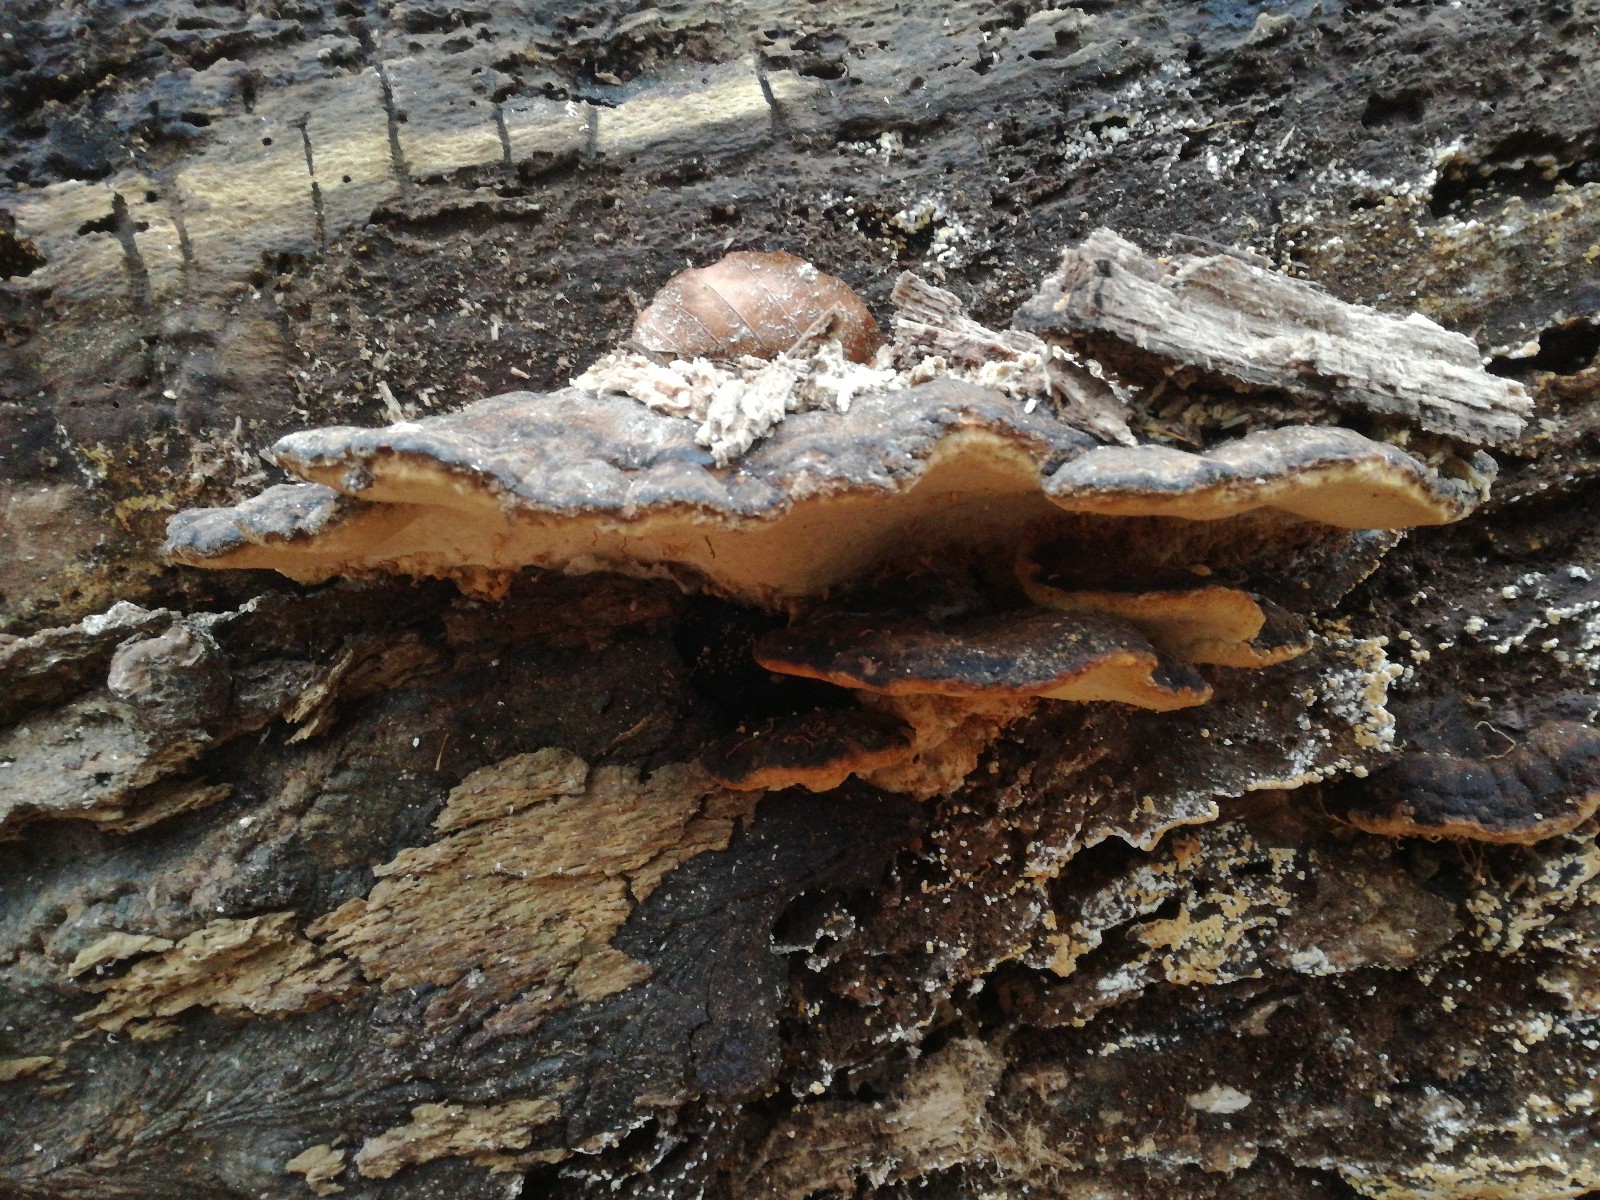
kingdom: Fungi
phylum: Basidiomycota
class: Agaricomycetes
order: Polyporales
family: Ischnodermataceae
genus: Ischnoderma
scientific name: Ischnoderma resinosum
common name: løv-tjæreporesvamp
